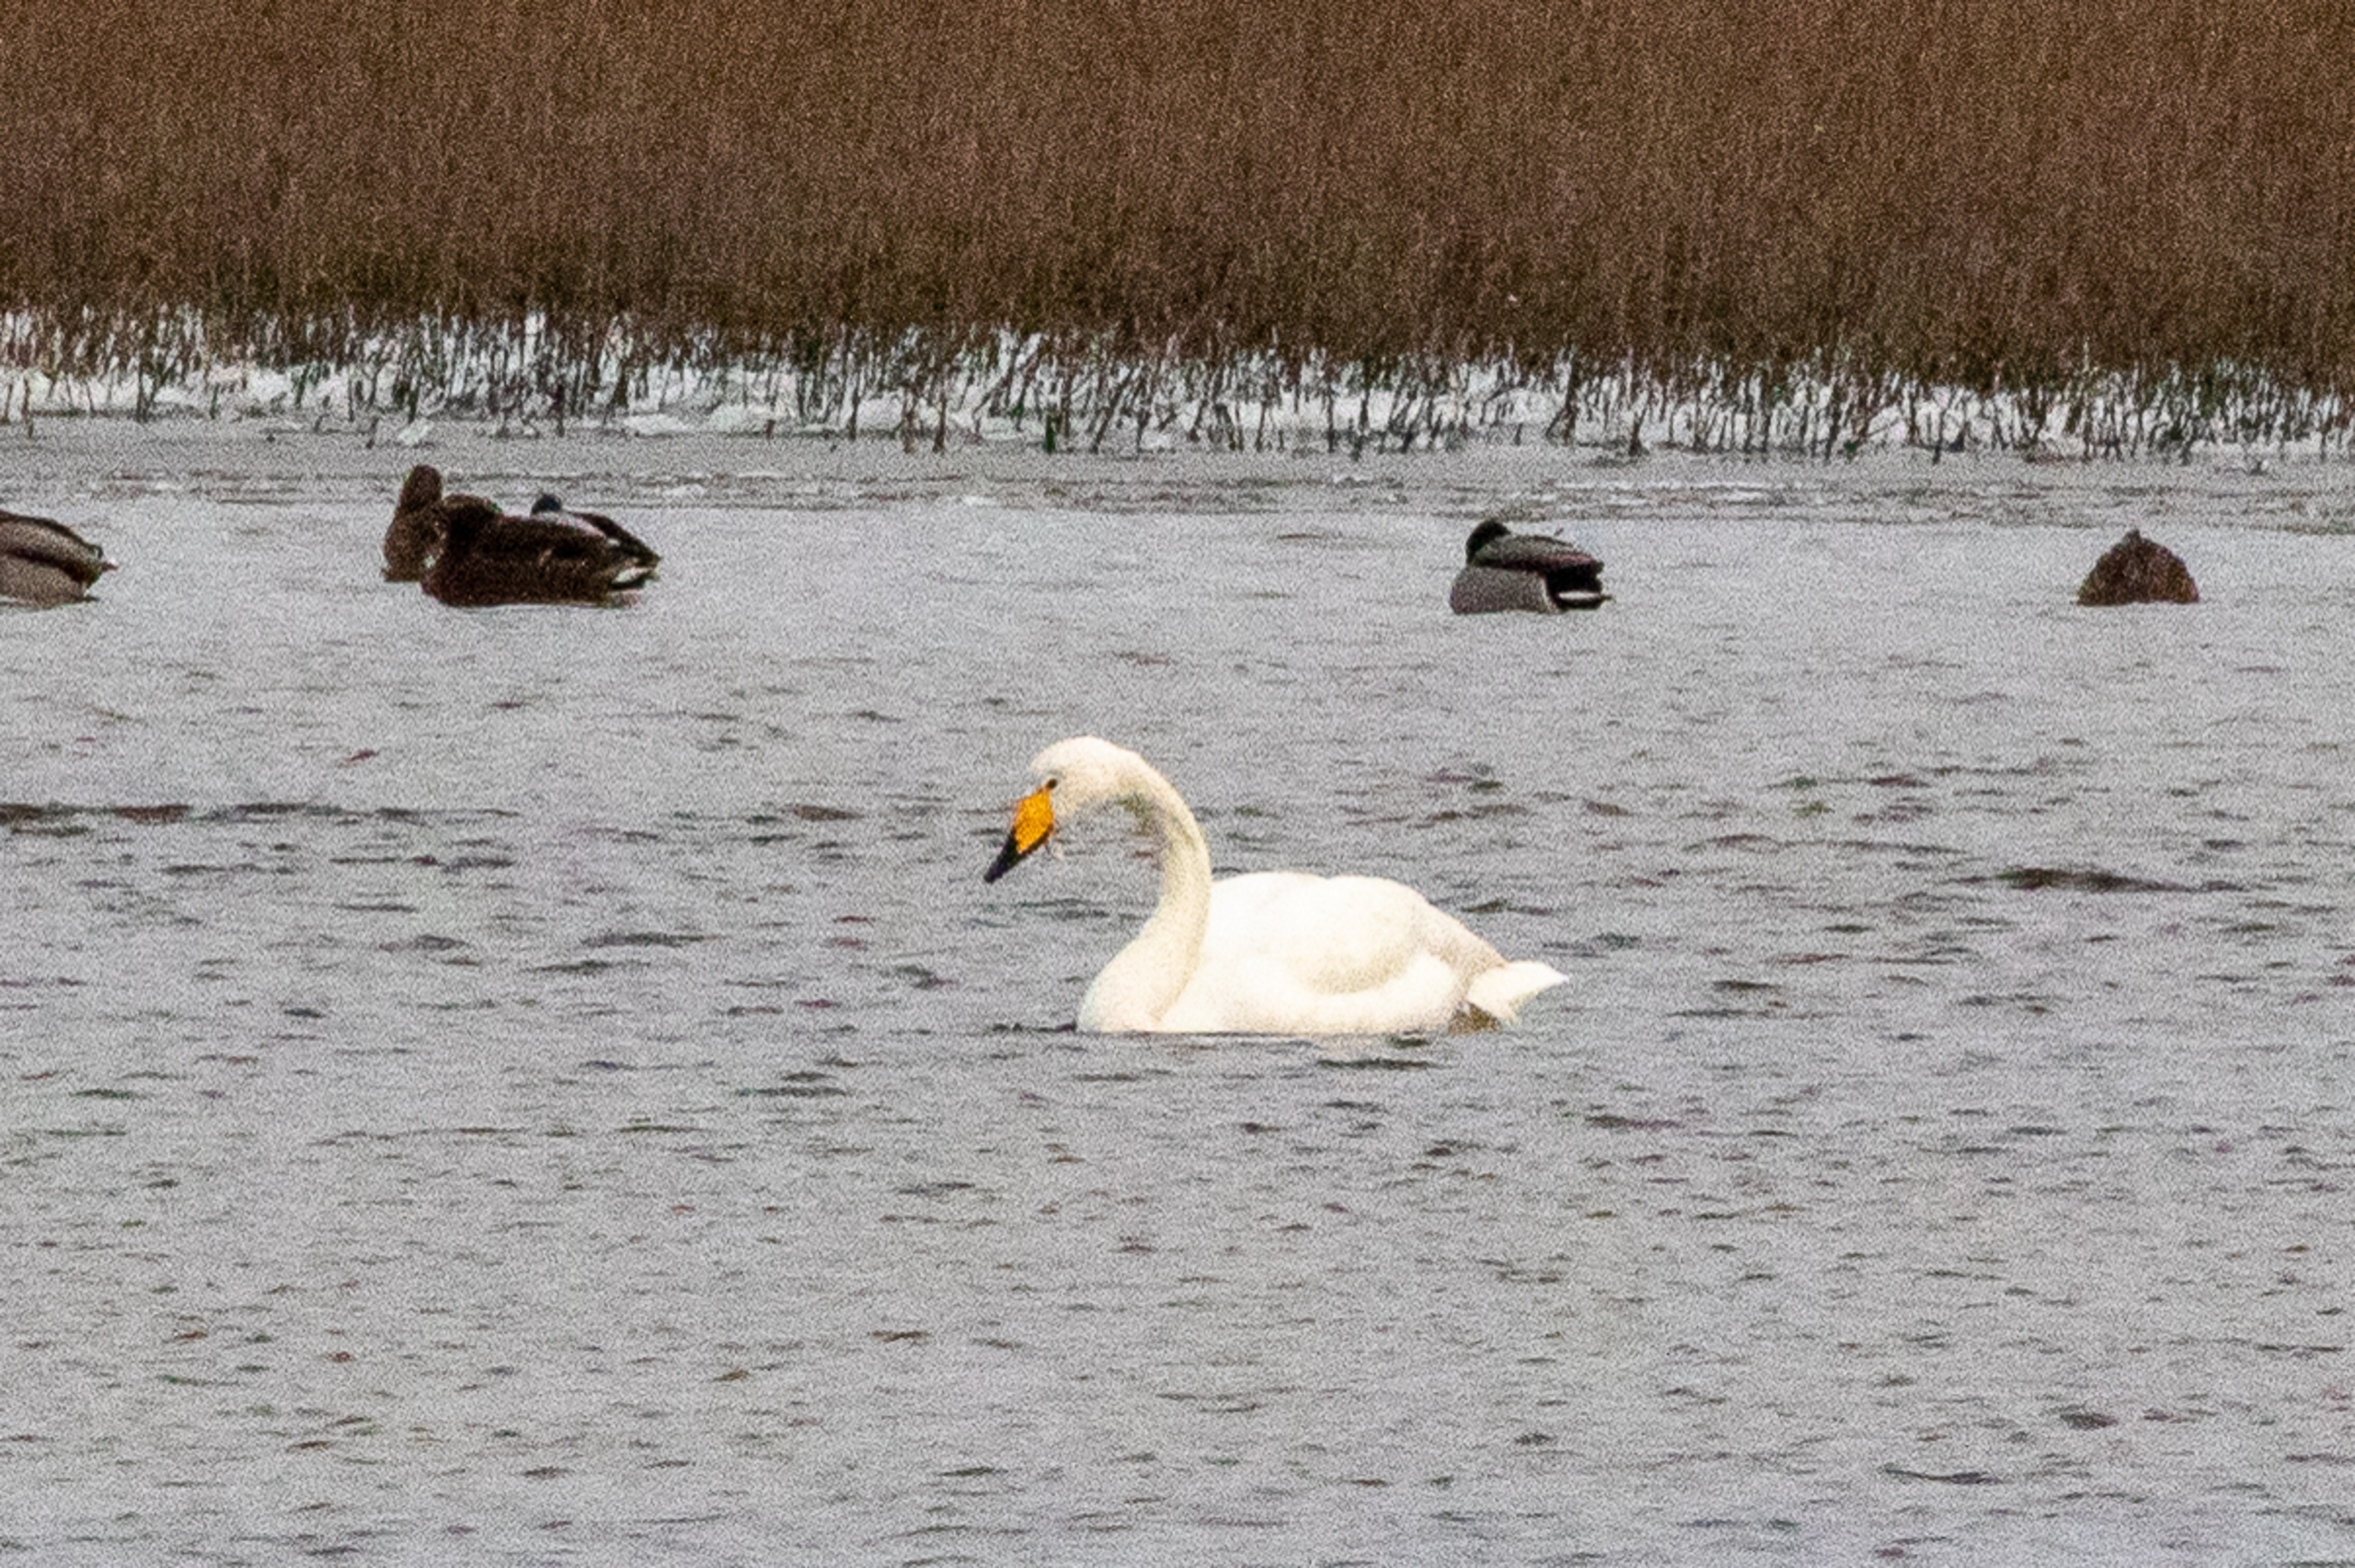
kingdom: Animalia
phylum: Chordata
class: Aves
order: Anseriformes
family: Anatidae
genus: Cygnus
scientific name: Cygnus cygnus
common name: Sangsvane
